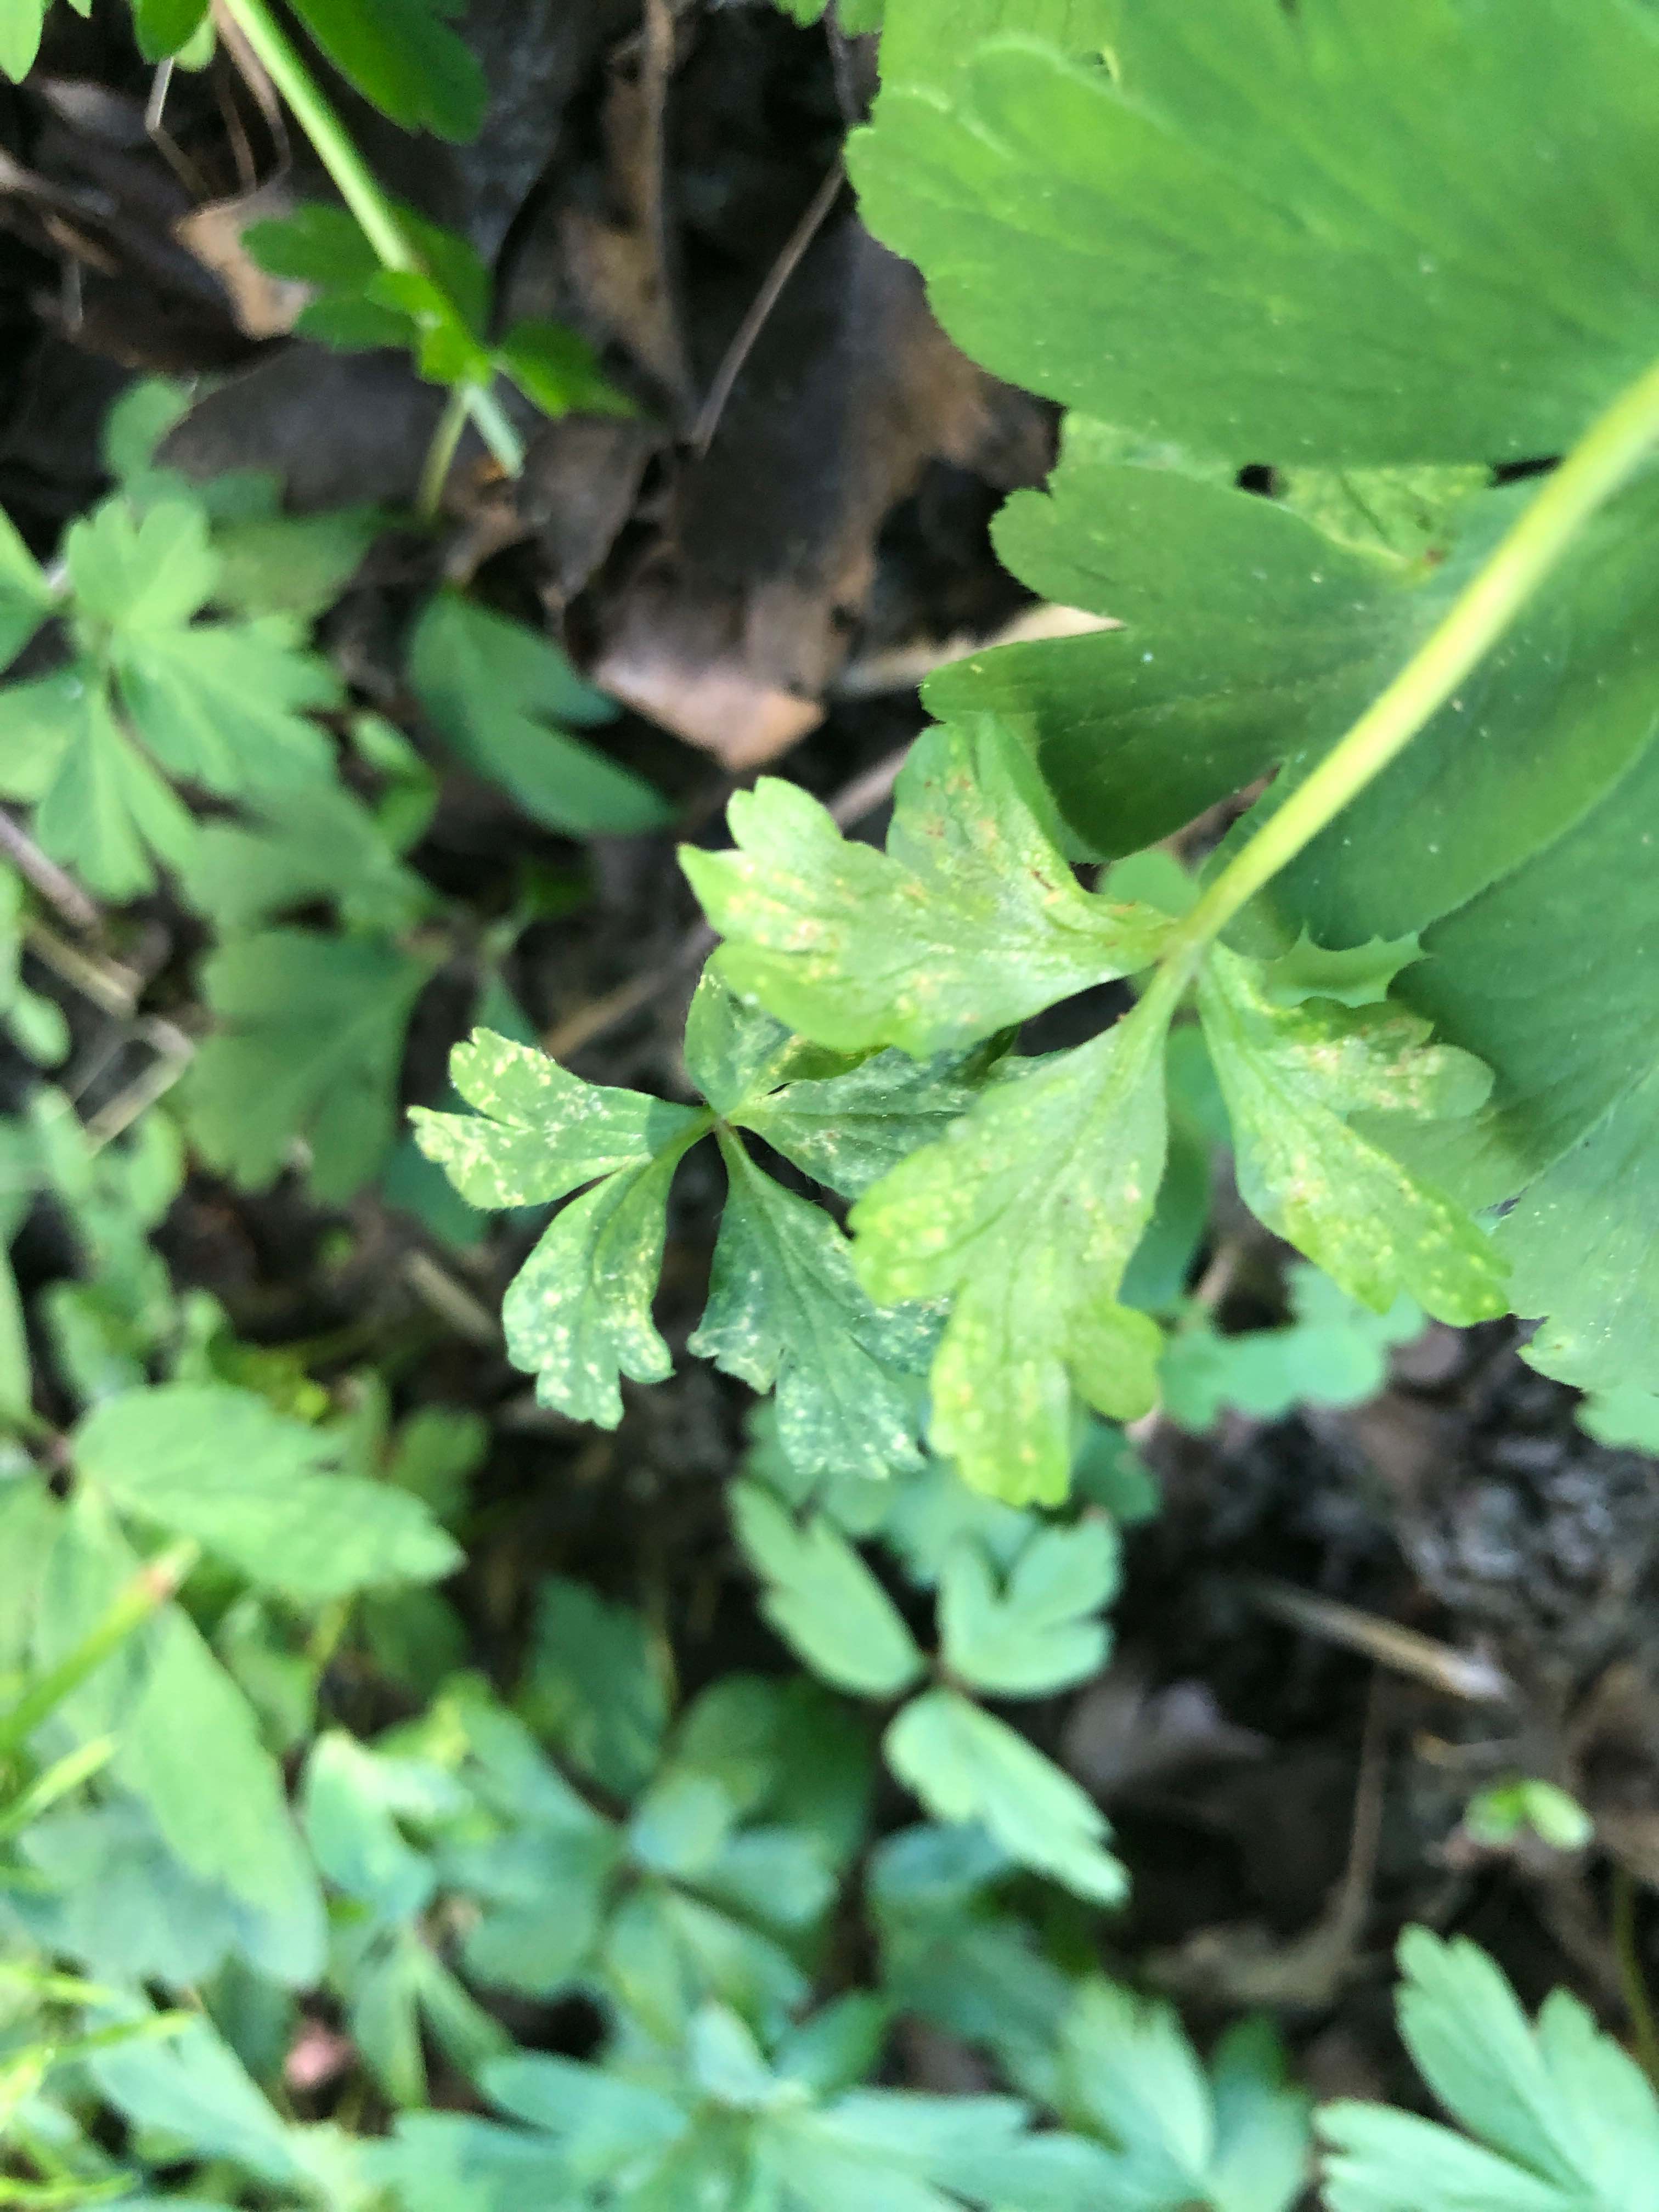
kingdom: Fungi
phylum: Basidiomycota
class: Pucciniomycetes
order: Pucciniales
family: Ochropsoraceae
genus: Ochropsora
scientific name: Ochropsora ariae
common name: anemone-okkerpletrust
